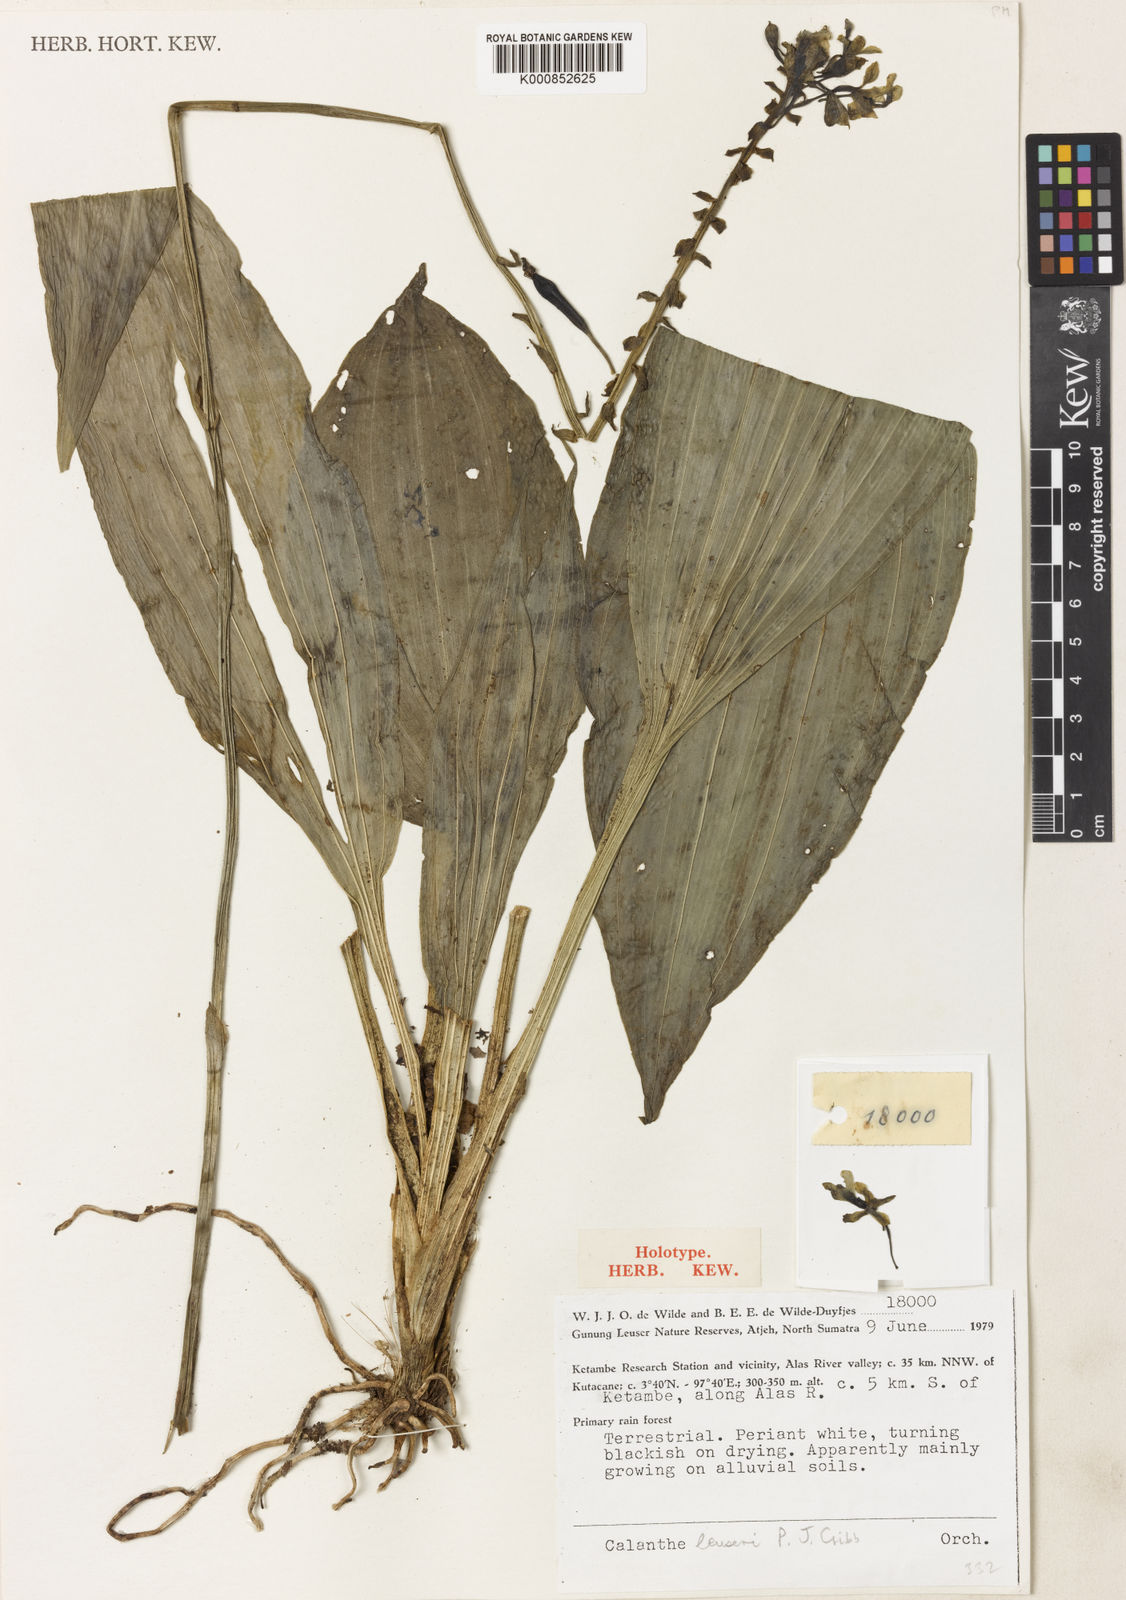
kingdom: Plantae
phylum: Tracheophyta
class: Liliopsida
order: Asparagales
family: Orchidaceae
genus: Calanthe
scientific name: Calanthe leuseri
